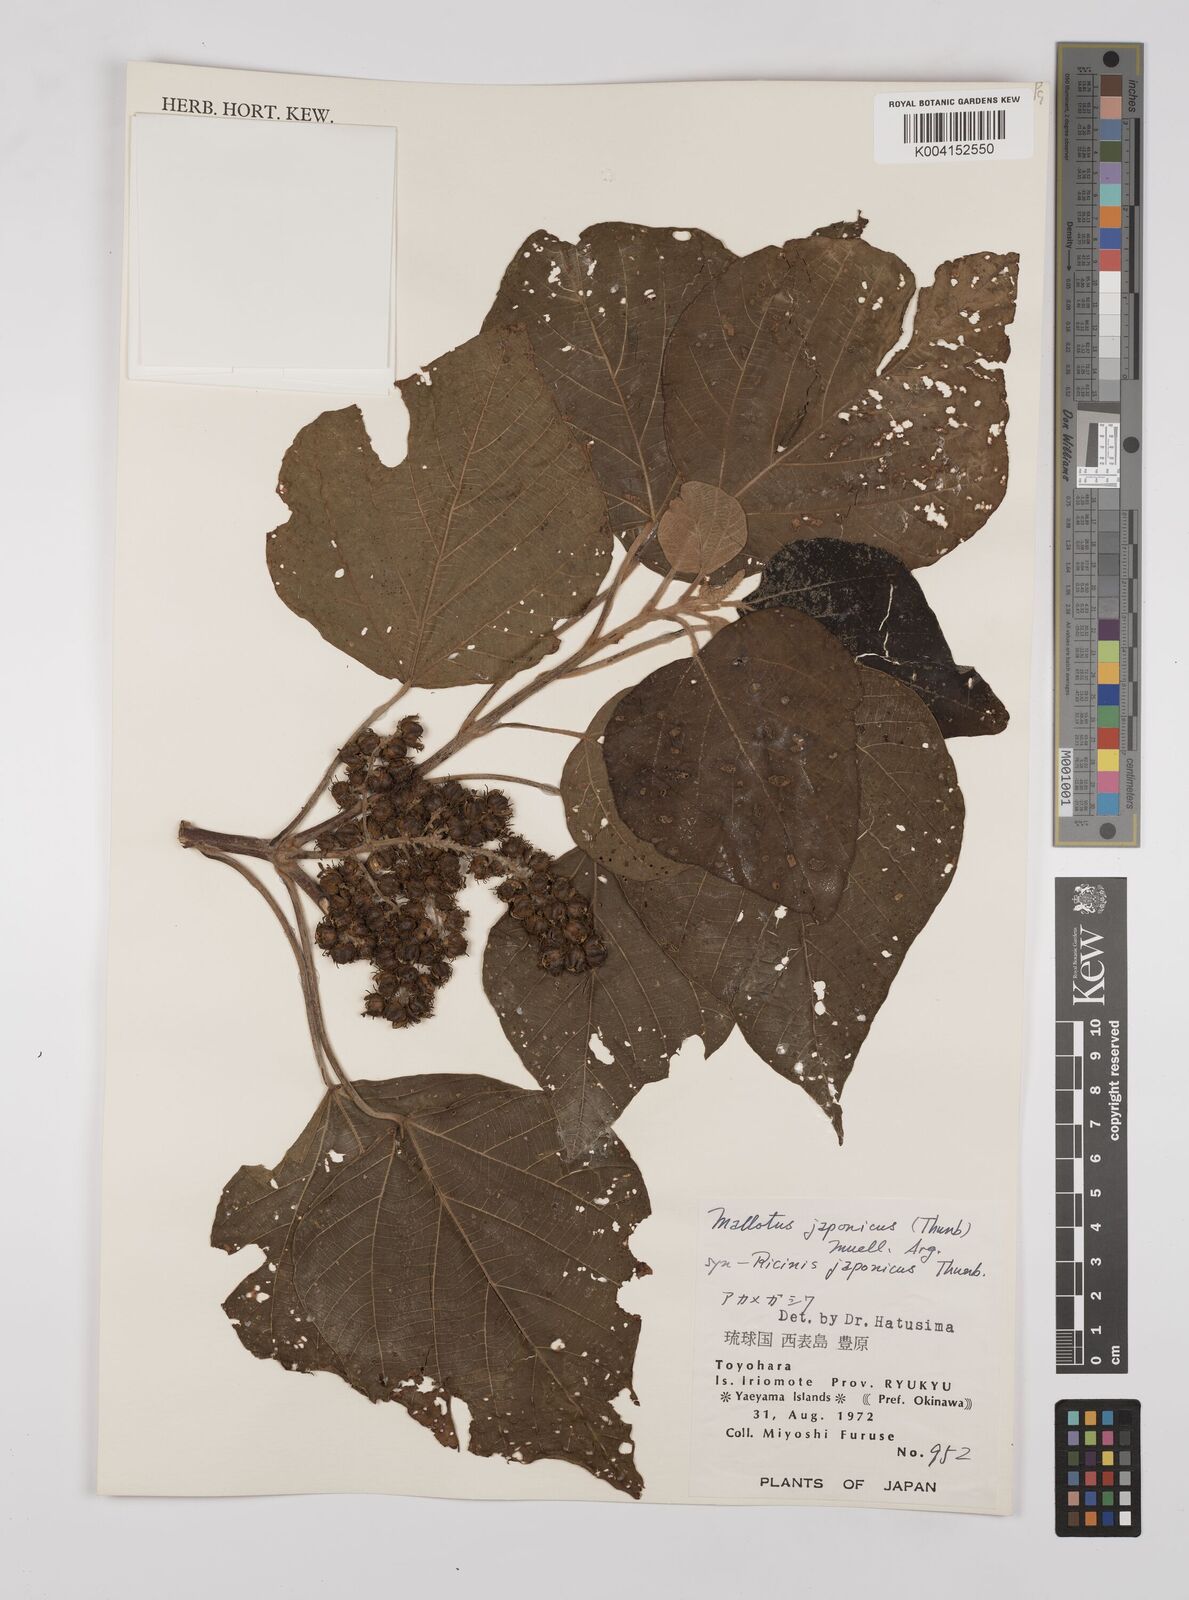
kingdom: Plantae
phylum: Tracheophyta
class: Magnoliopsida
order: Malpighiales
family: Euphorbiaceae
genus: Mallotus
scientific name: Mallotus japonicus
